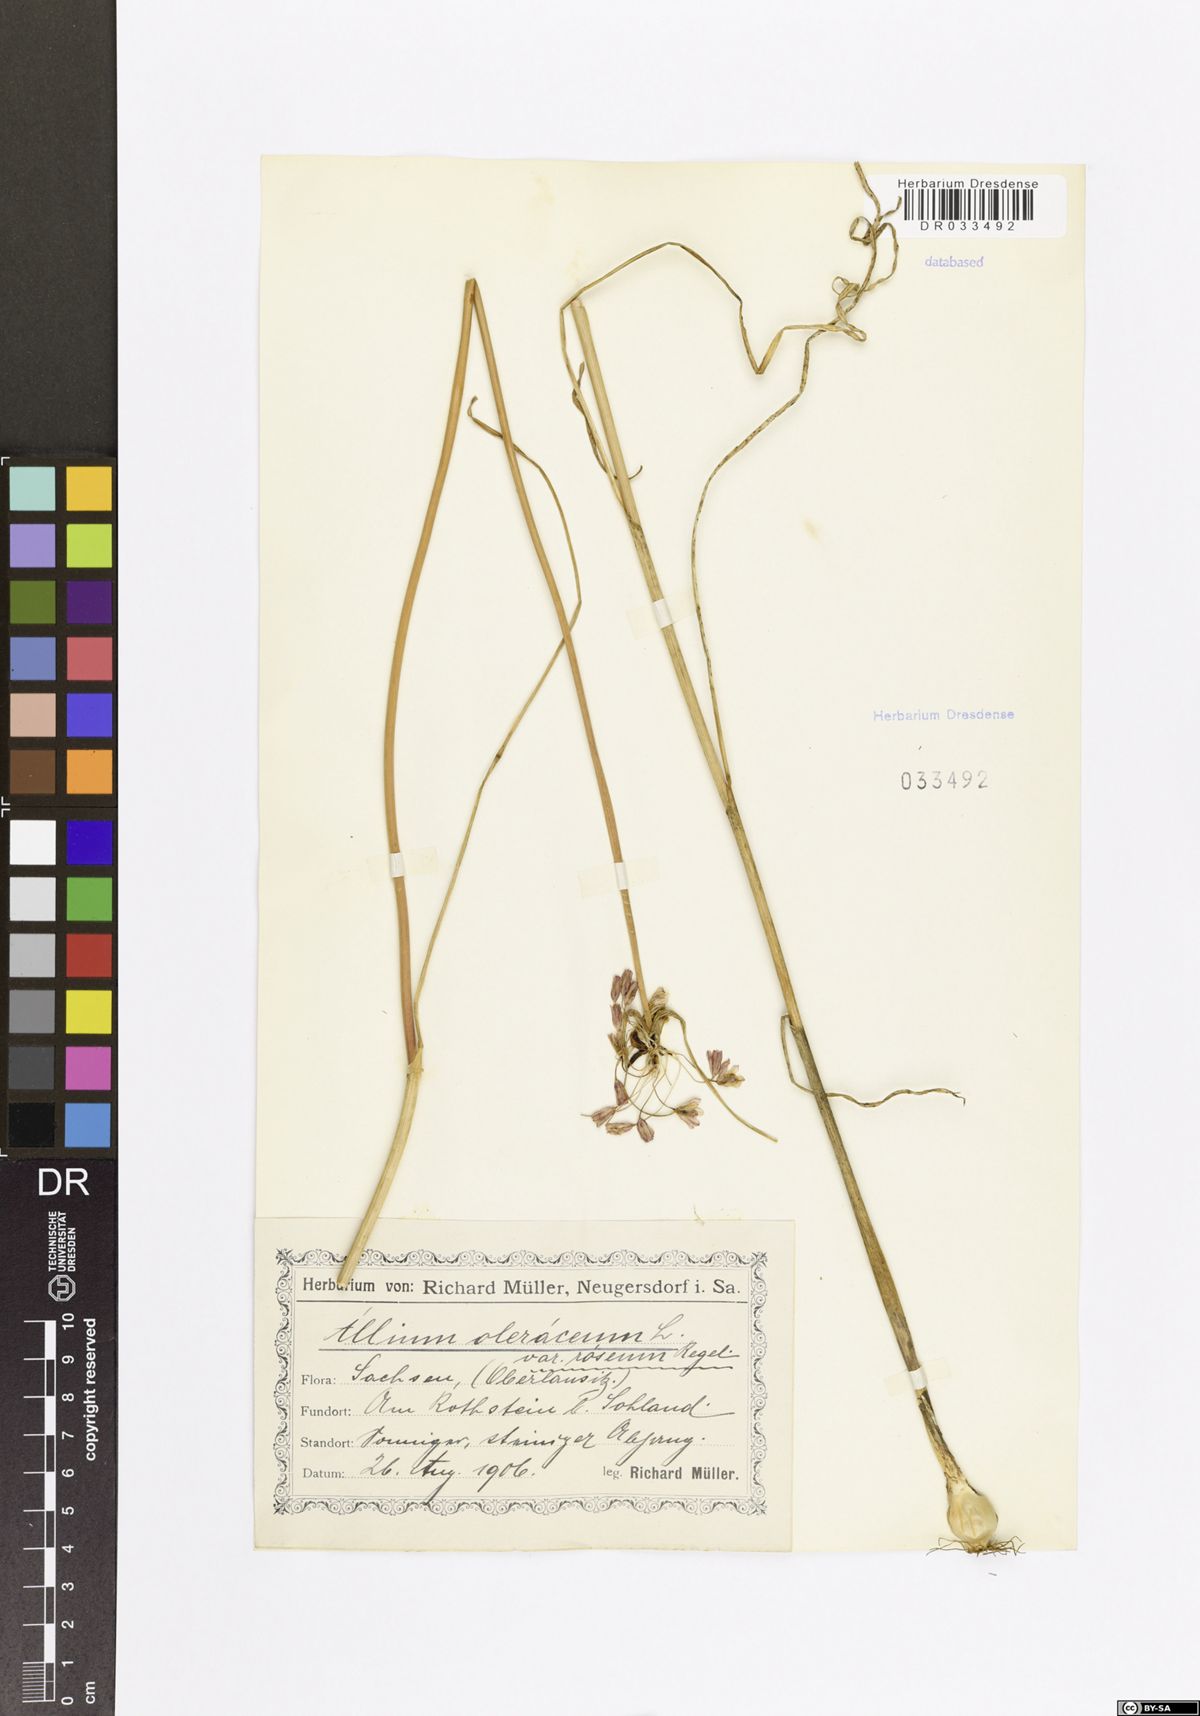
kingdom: Plantae
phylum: Tracheophyta
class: Liliopsida
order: Asparagales
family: Amaryllidaceae
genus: Allium
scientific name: Allium oleraceum
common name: Field garlic
